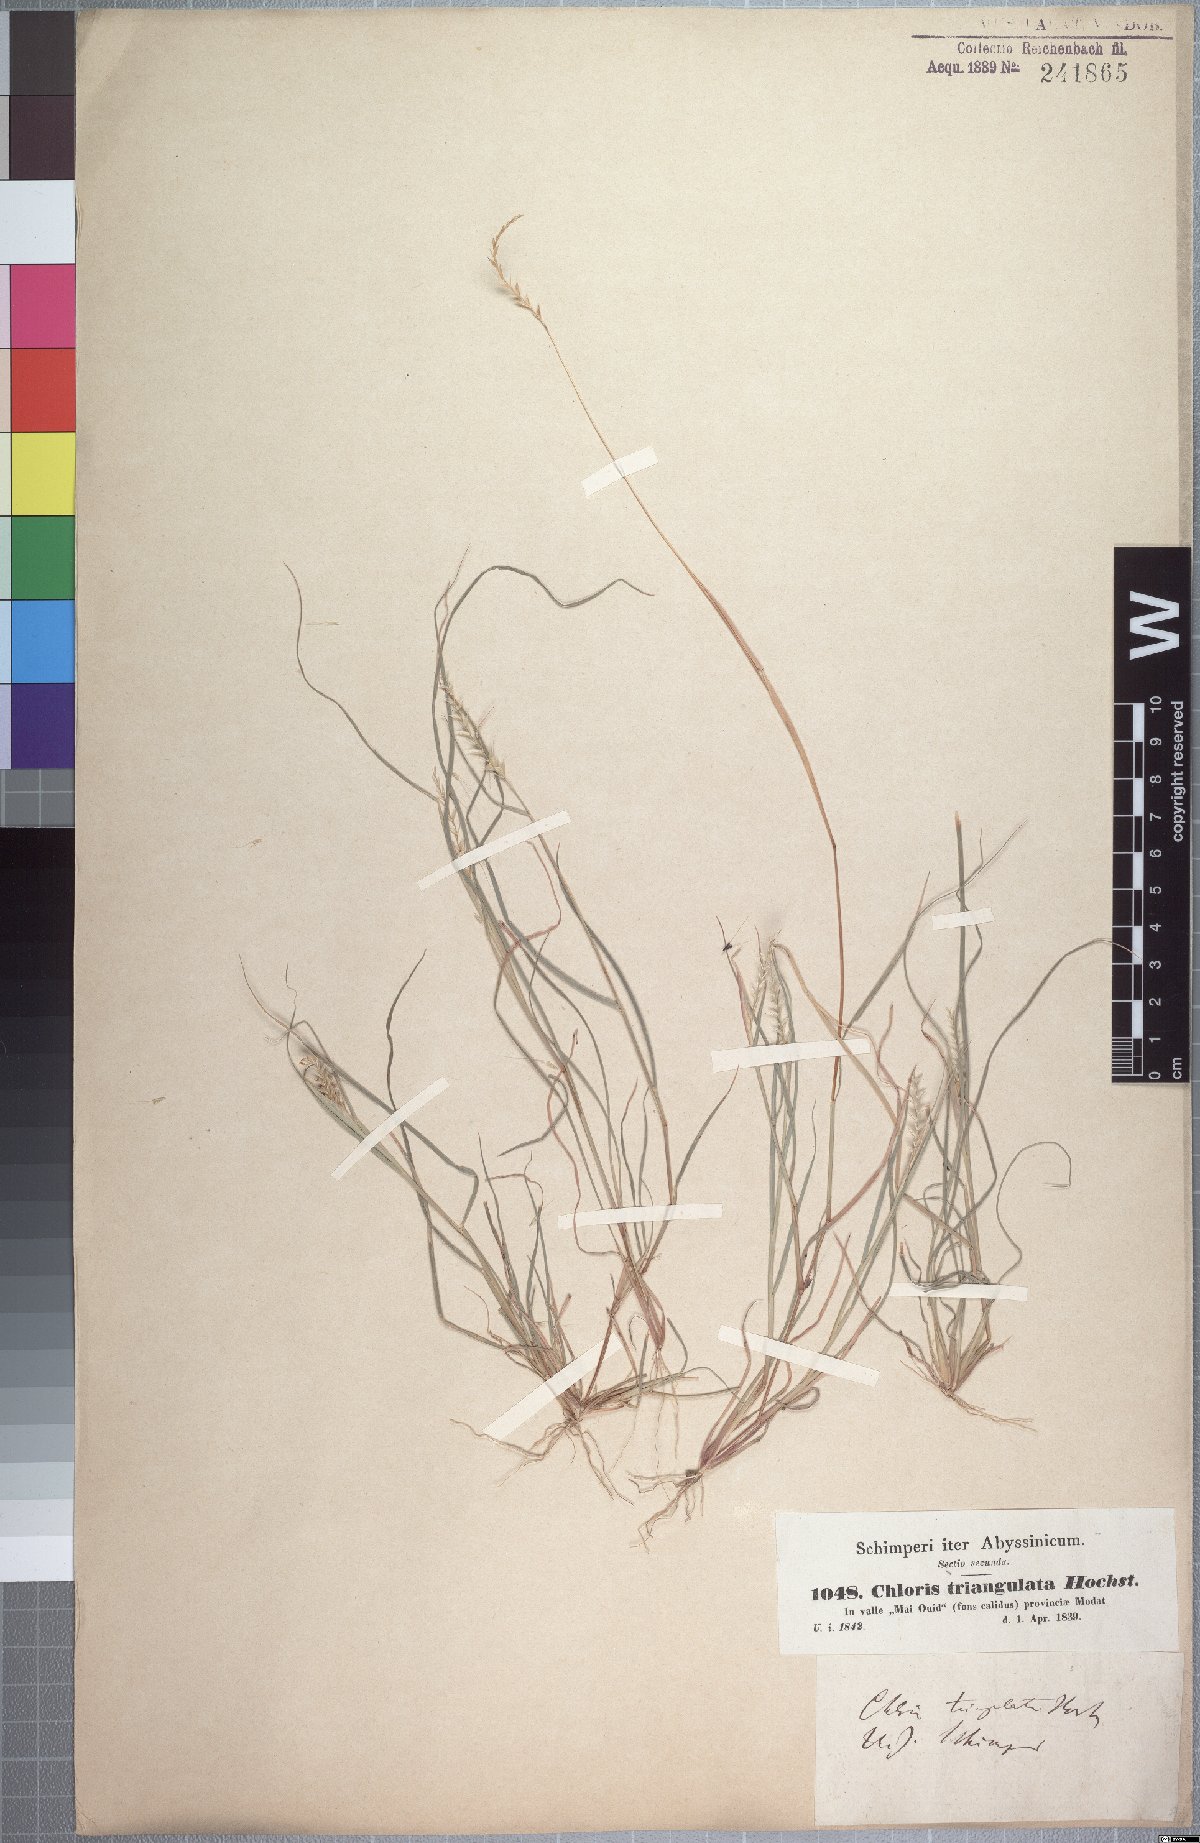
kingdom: Plantae
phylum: Tracheophyta
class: Liliopsida
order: Poales
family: Poaceae
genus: Tetrapogon
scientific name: Tetrapogon tenellus
